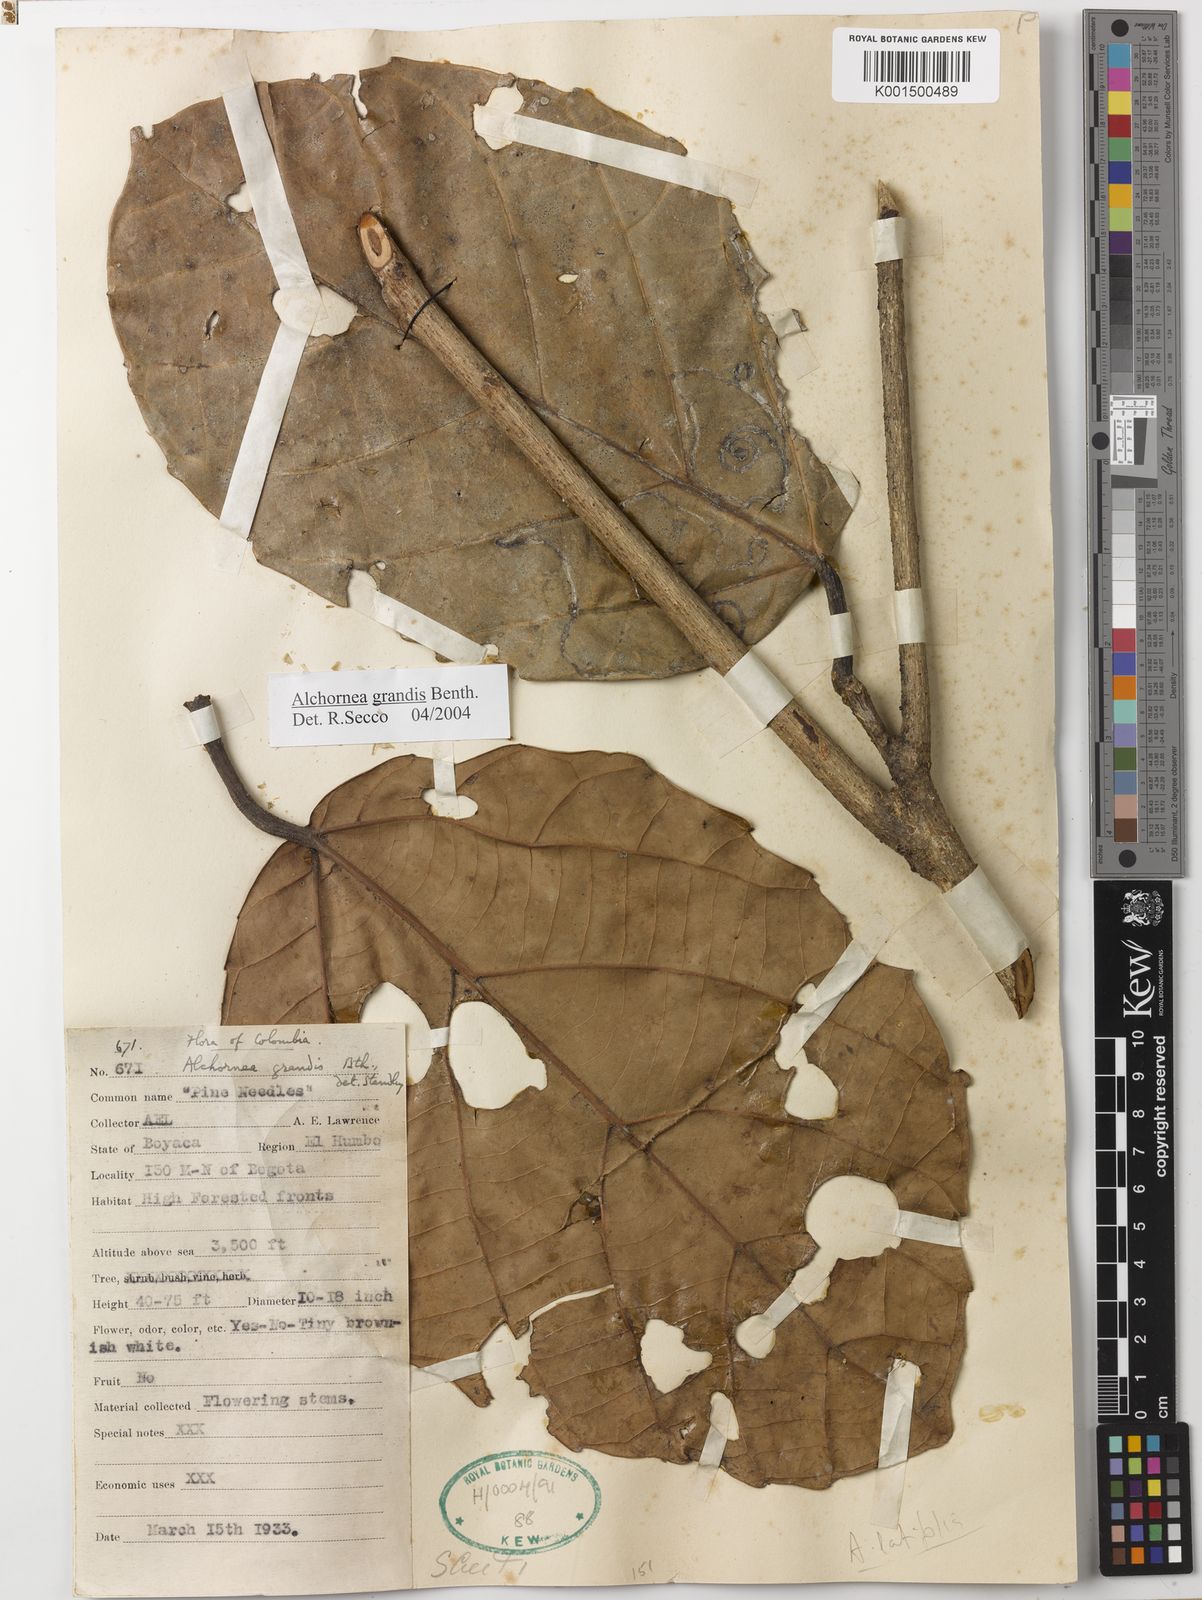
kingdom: Plantae
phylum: Tracheophyta
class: Magnoliopsida
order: Malpighiales
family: Euphorbiaceae
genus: Alchornea
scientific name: Alchornea grandis
